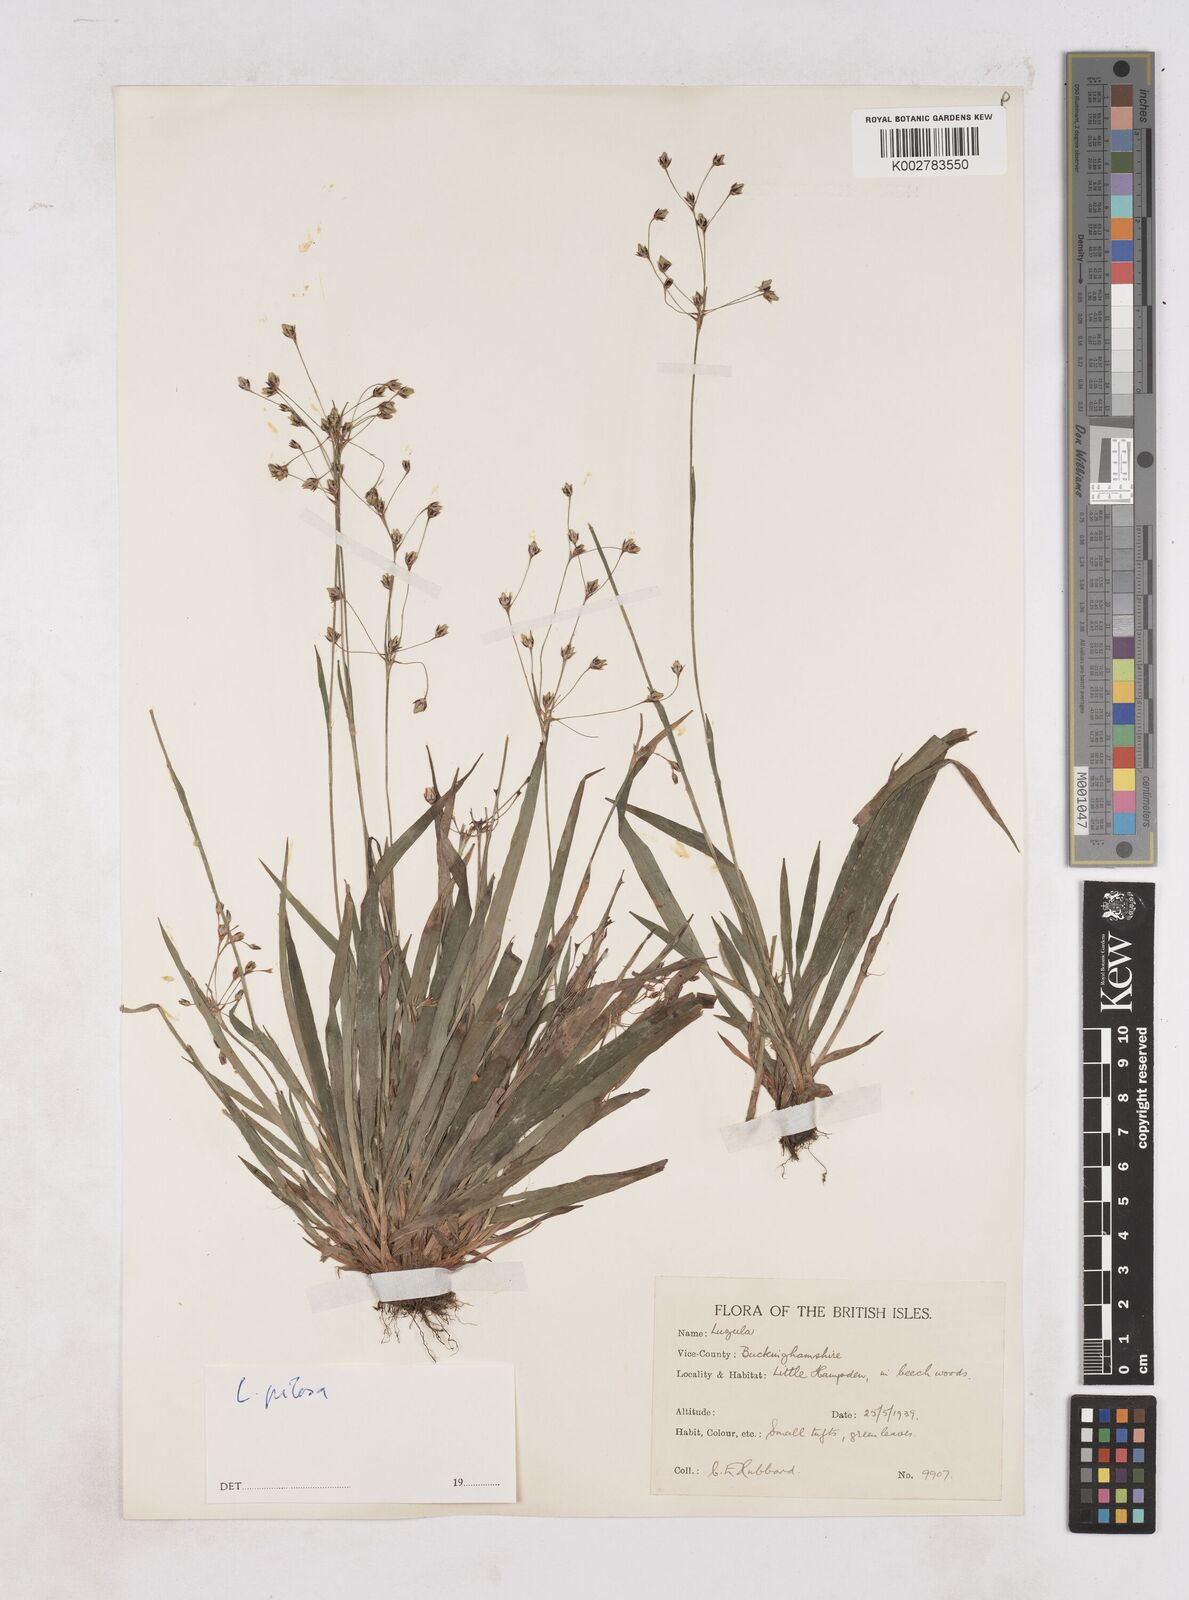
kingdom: Plantae
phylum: Tracheophyta
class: Liliopsida
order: Poales
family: Juncaceae
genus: Luzula
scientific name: Luzula
